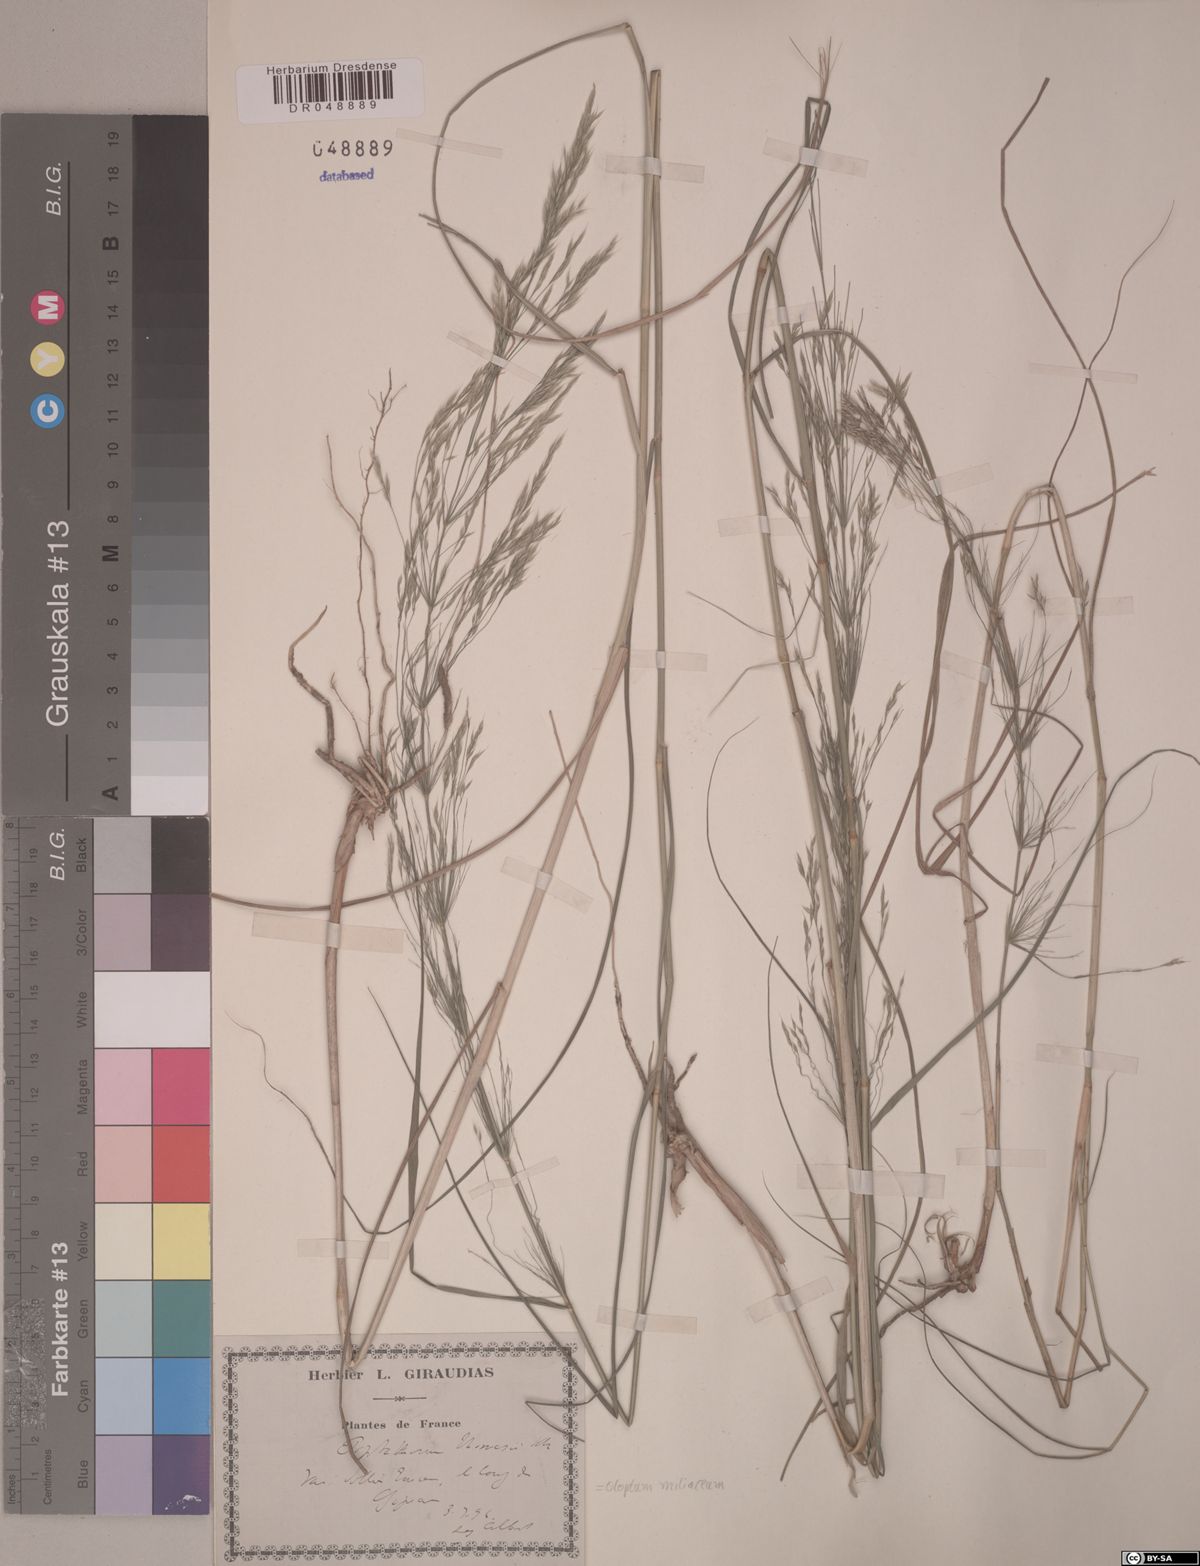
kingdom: Plantae
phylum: Tracheophyta
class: Liliopsida
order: Poales
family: Poaceae
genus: Oloptum
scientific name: Oloptum miliaceum
